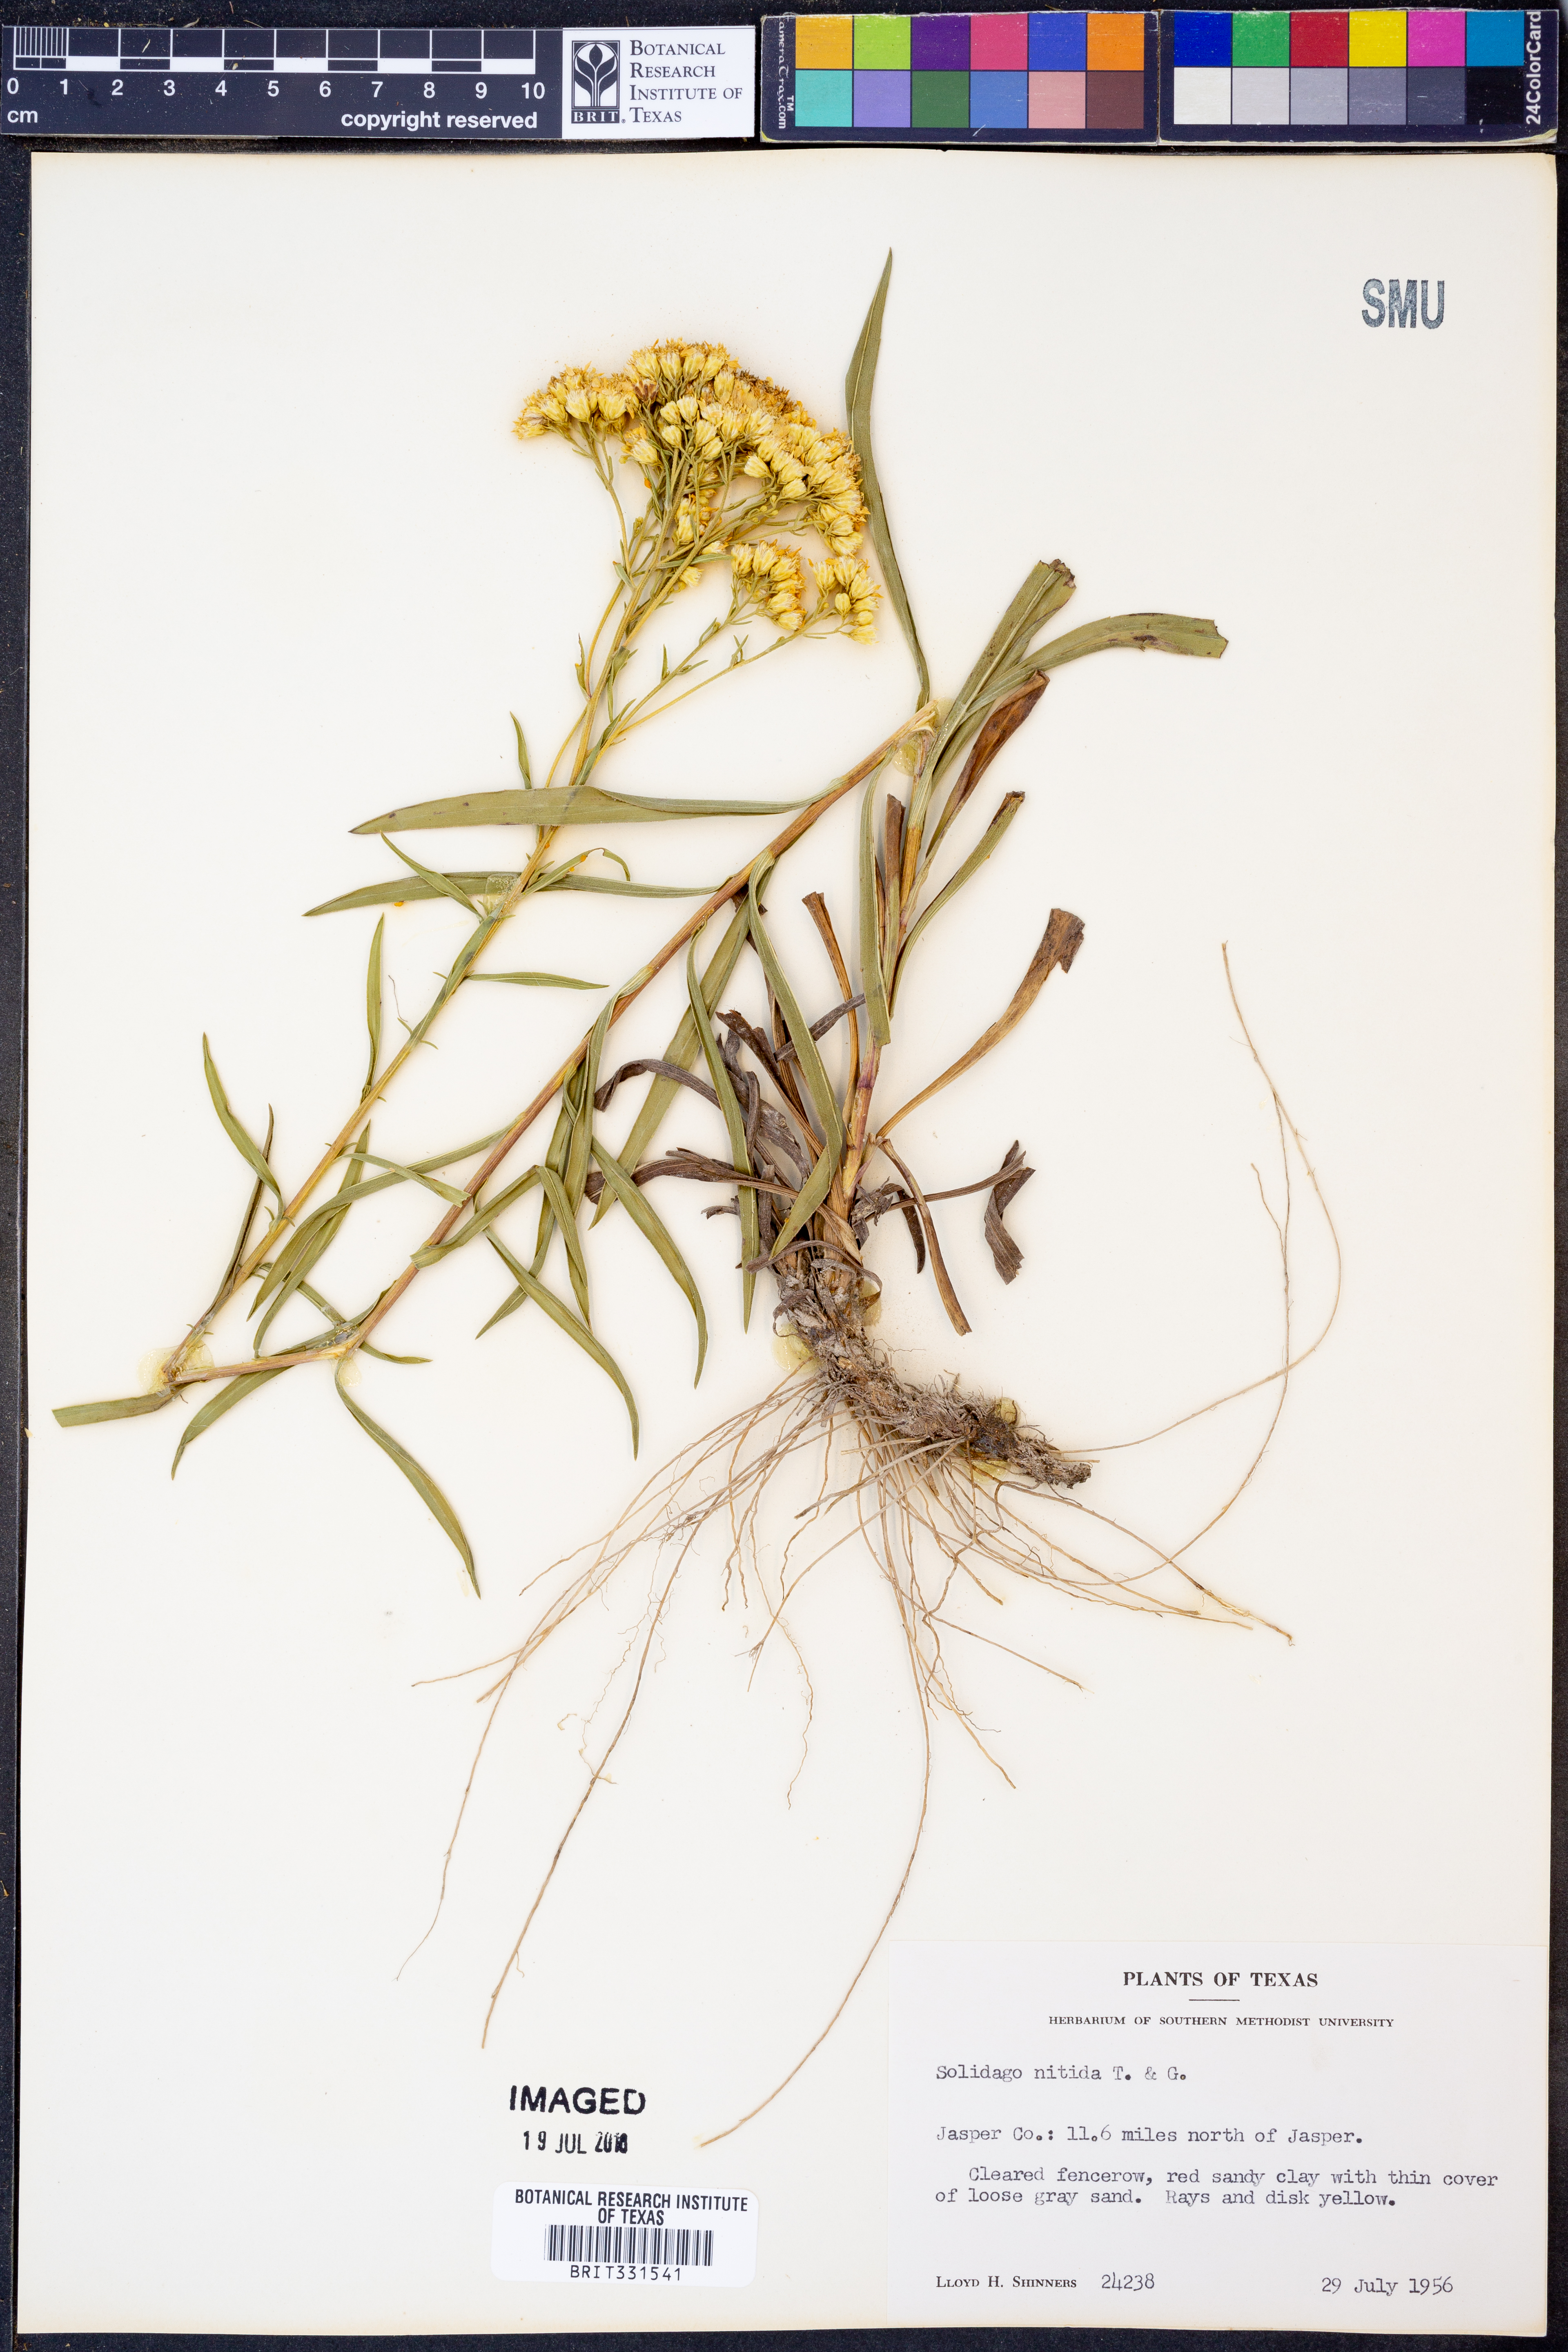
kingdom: Plantae
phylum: Tracheophyta
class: Magnoliopsida
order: Asterales
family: Asteraceae
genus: Solidago
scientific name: Solidago nitida
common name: Shiny goldenrod
